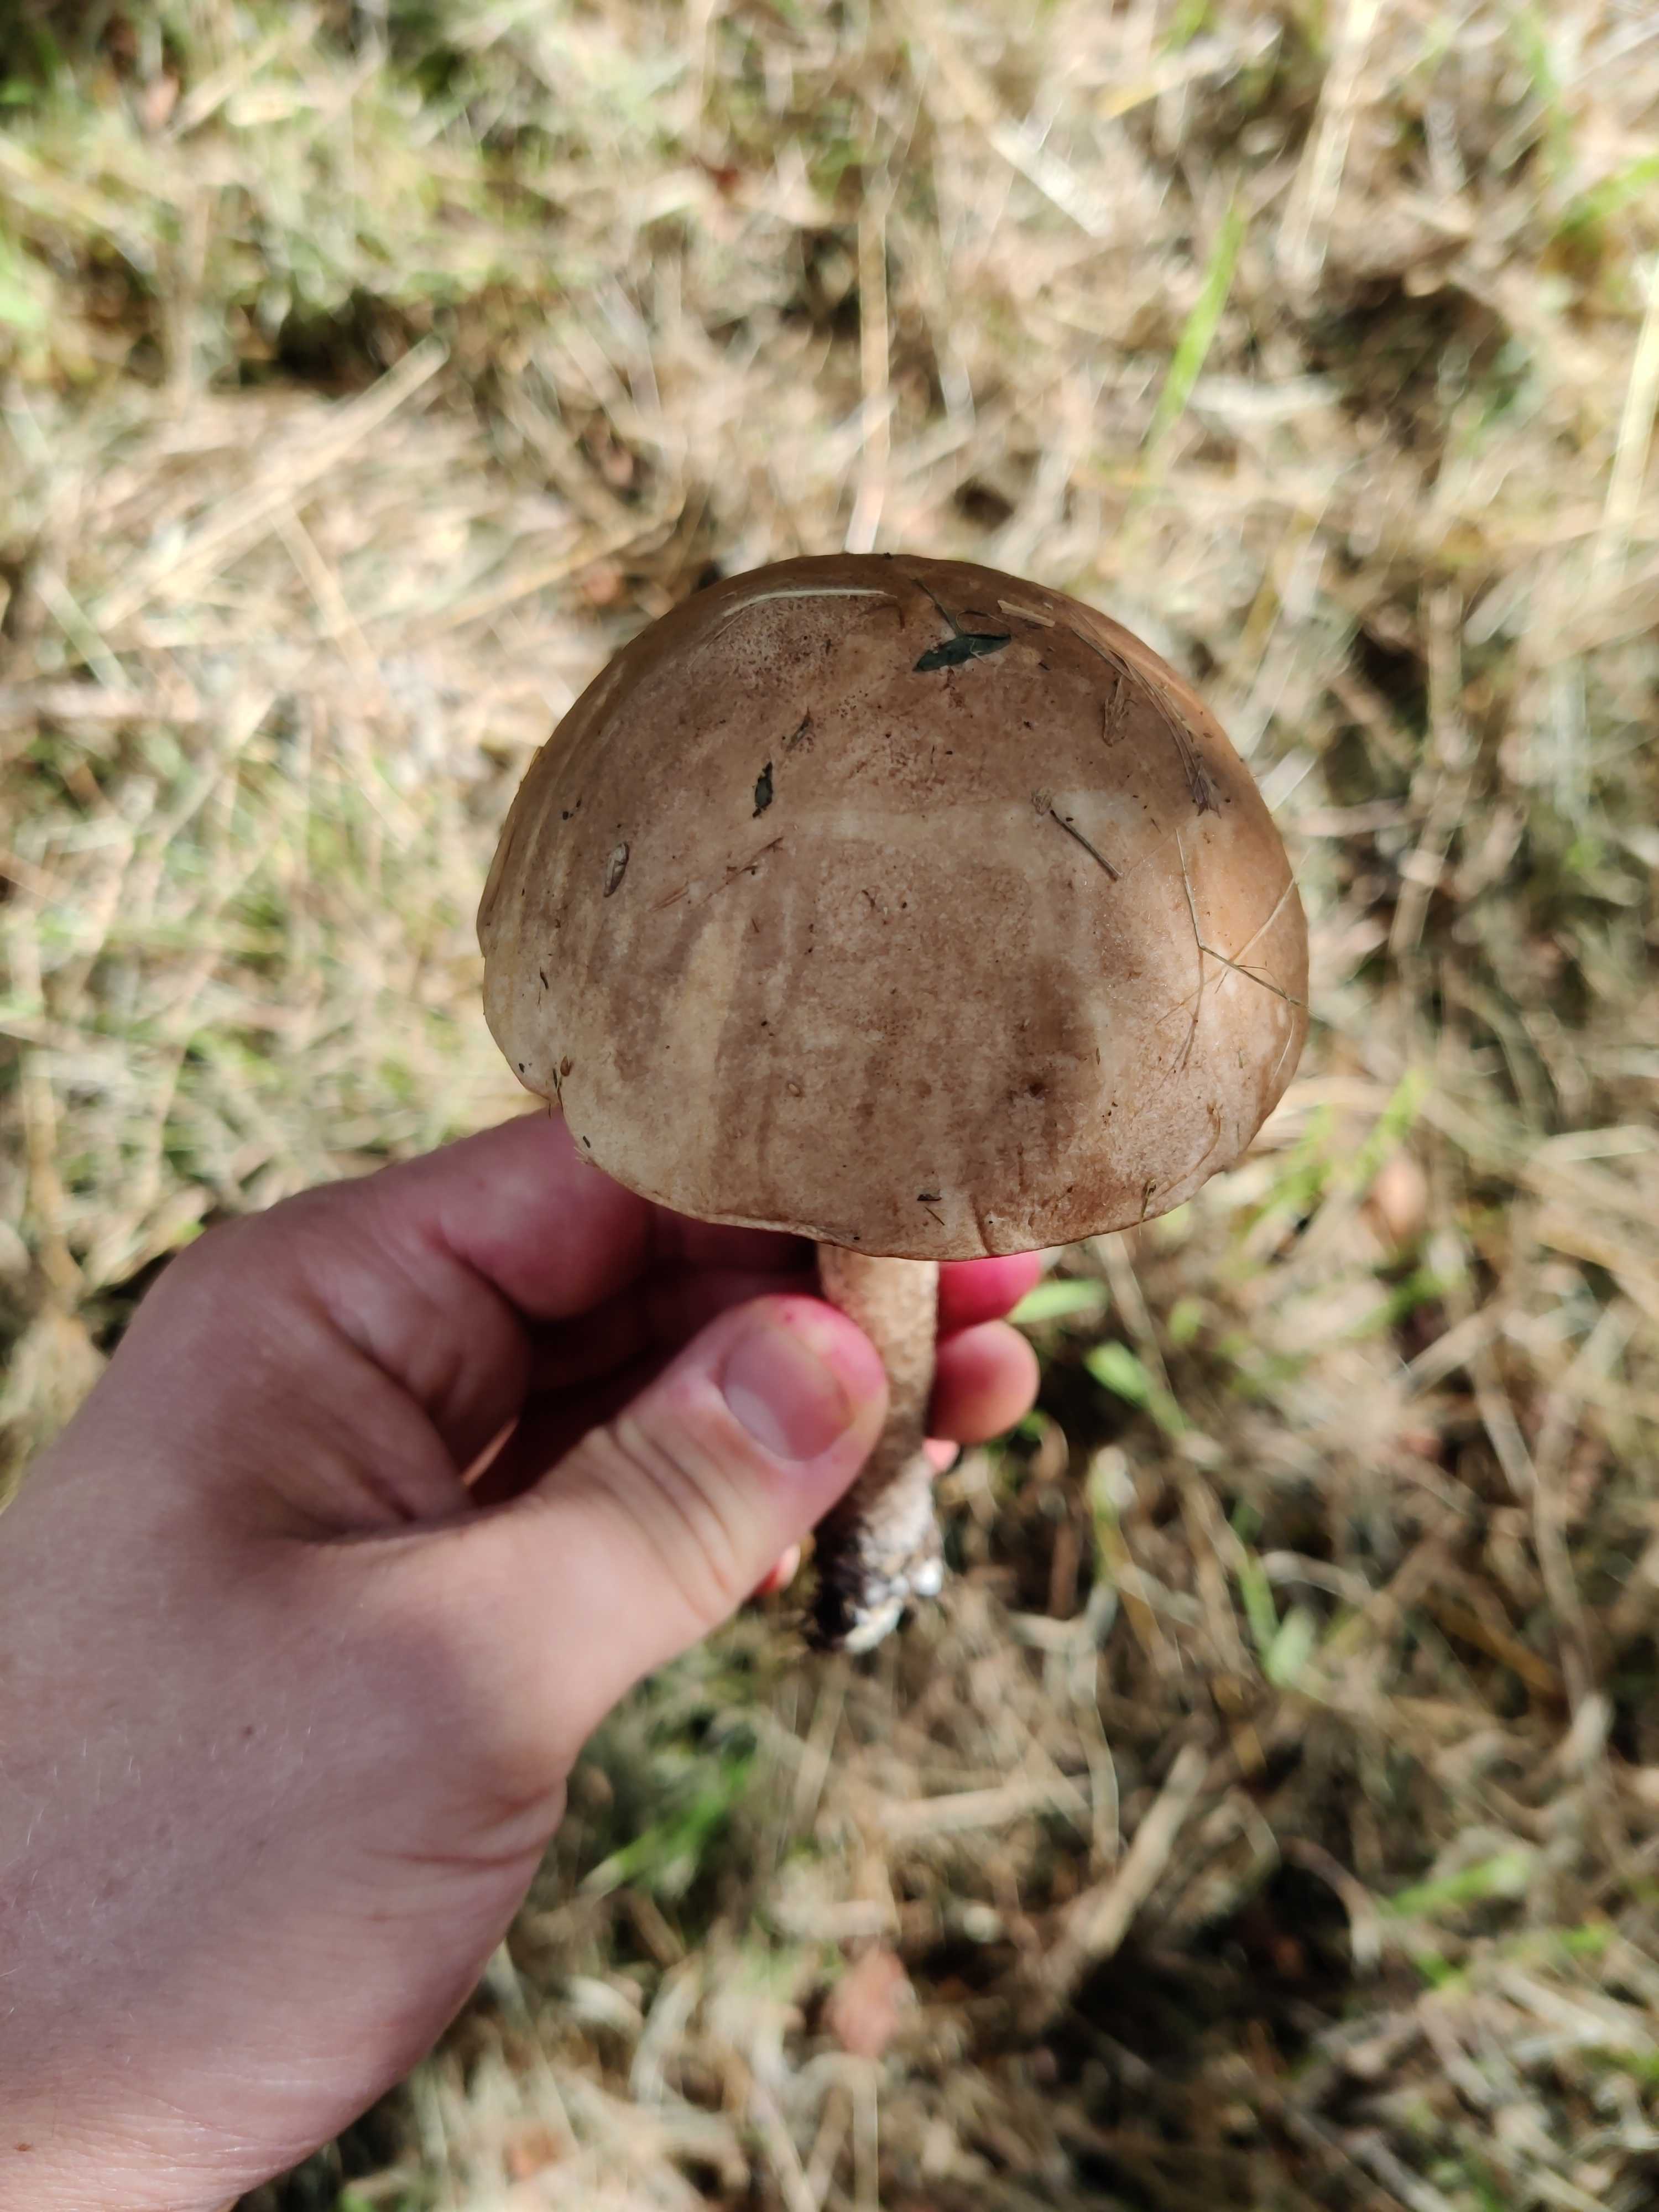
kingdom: Fungi
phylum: Basidiomycota
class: Agaricomycetes
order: Boletales
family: Boletaceae
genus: Leccinum
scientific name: Leccinum
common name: skælrørhat
